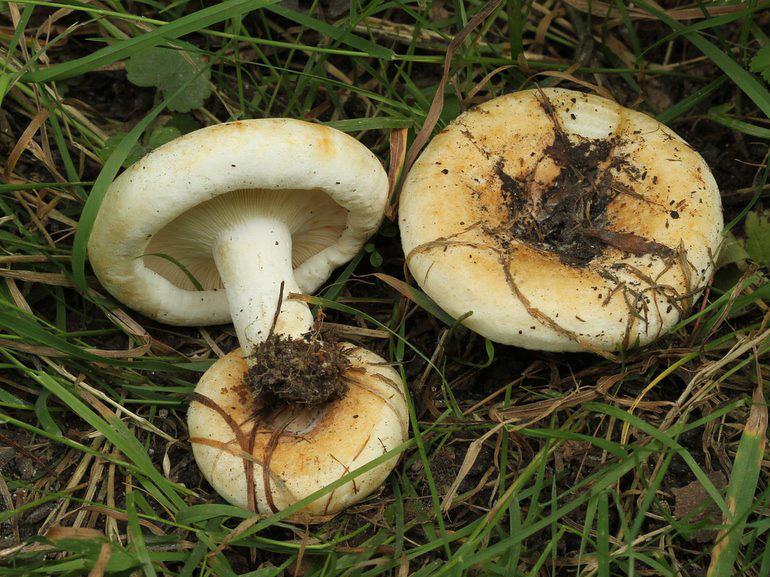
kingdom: Fungi
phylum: Basidiomycota
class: Agaricomycetes
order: Russulales
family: Russulaceae
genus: Lactarius
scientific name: Lactarius evosmus
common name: bæltet mælkehat
